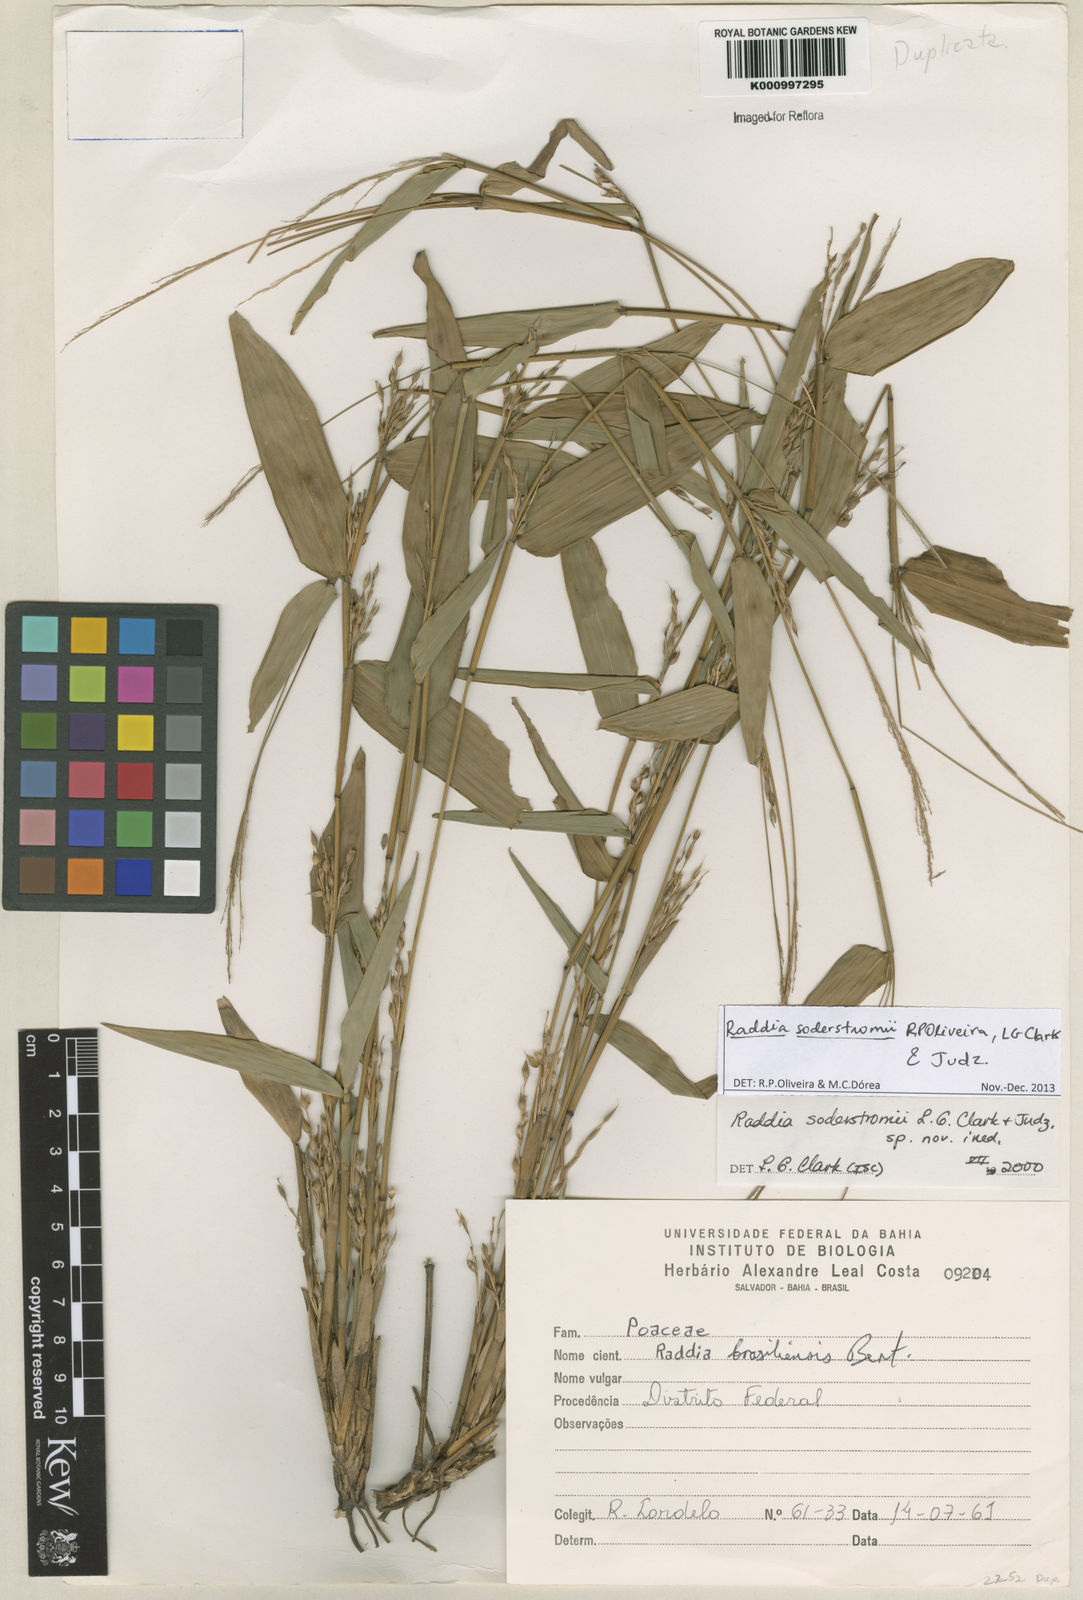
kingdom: Plantae
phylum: Tracheophyta
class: Liliopsida
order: Poales
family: Poaceae
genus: Raddia
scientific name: Raddia soderstromii
